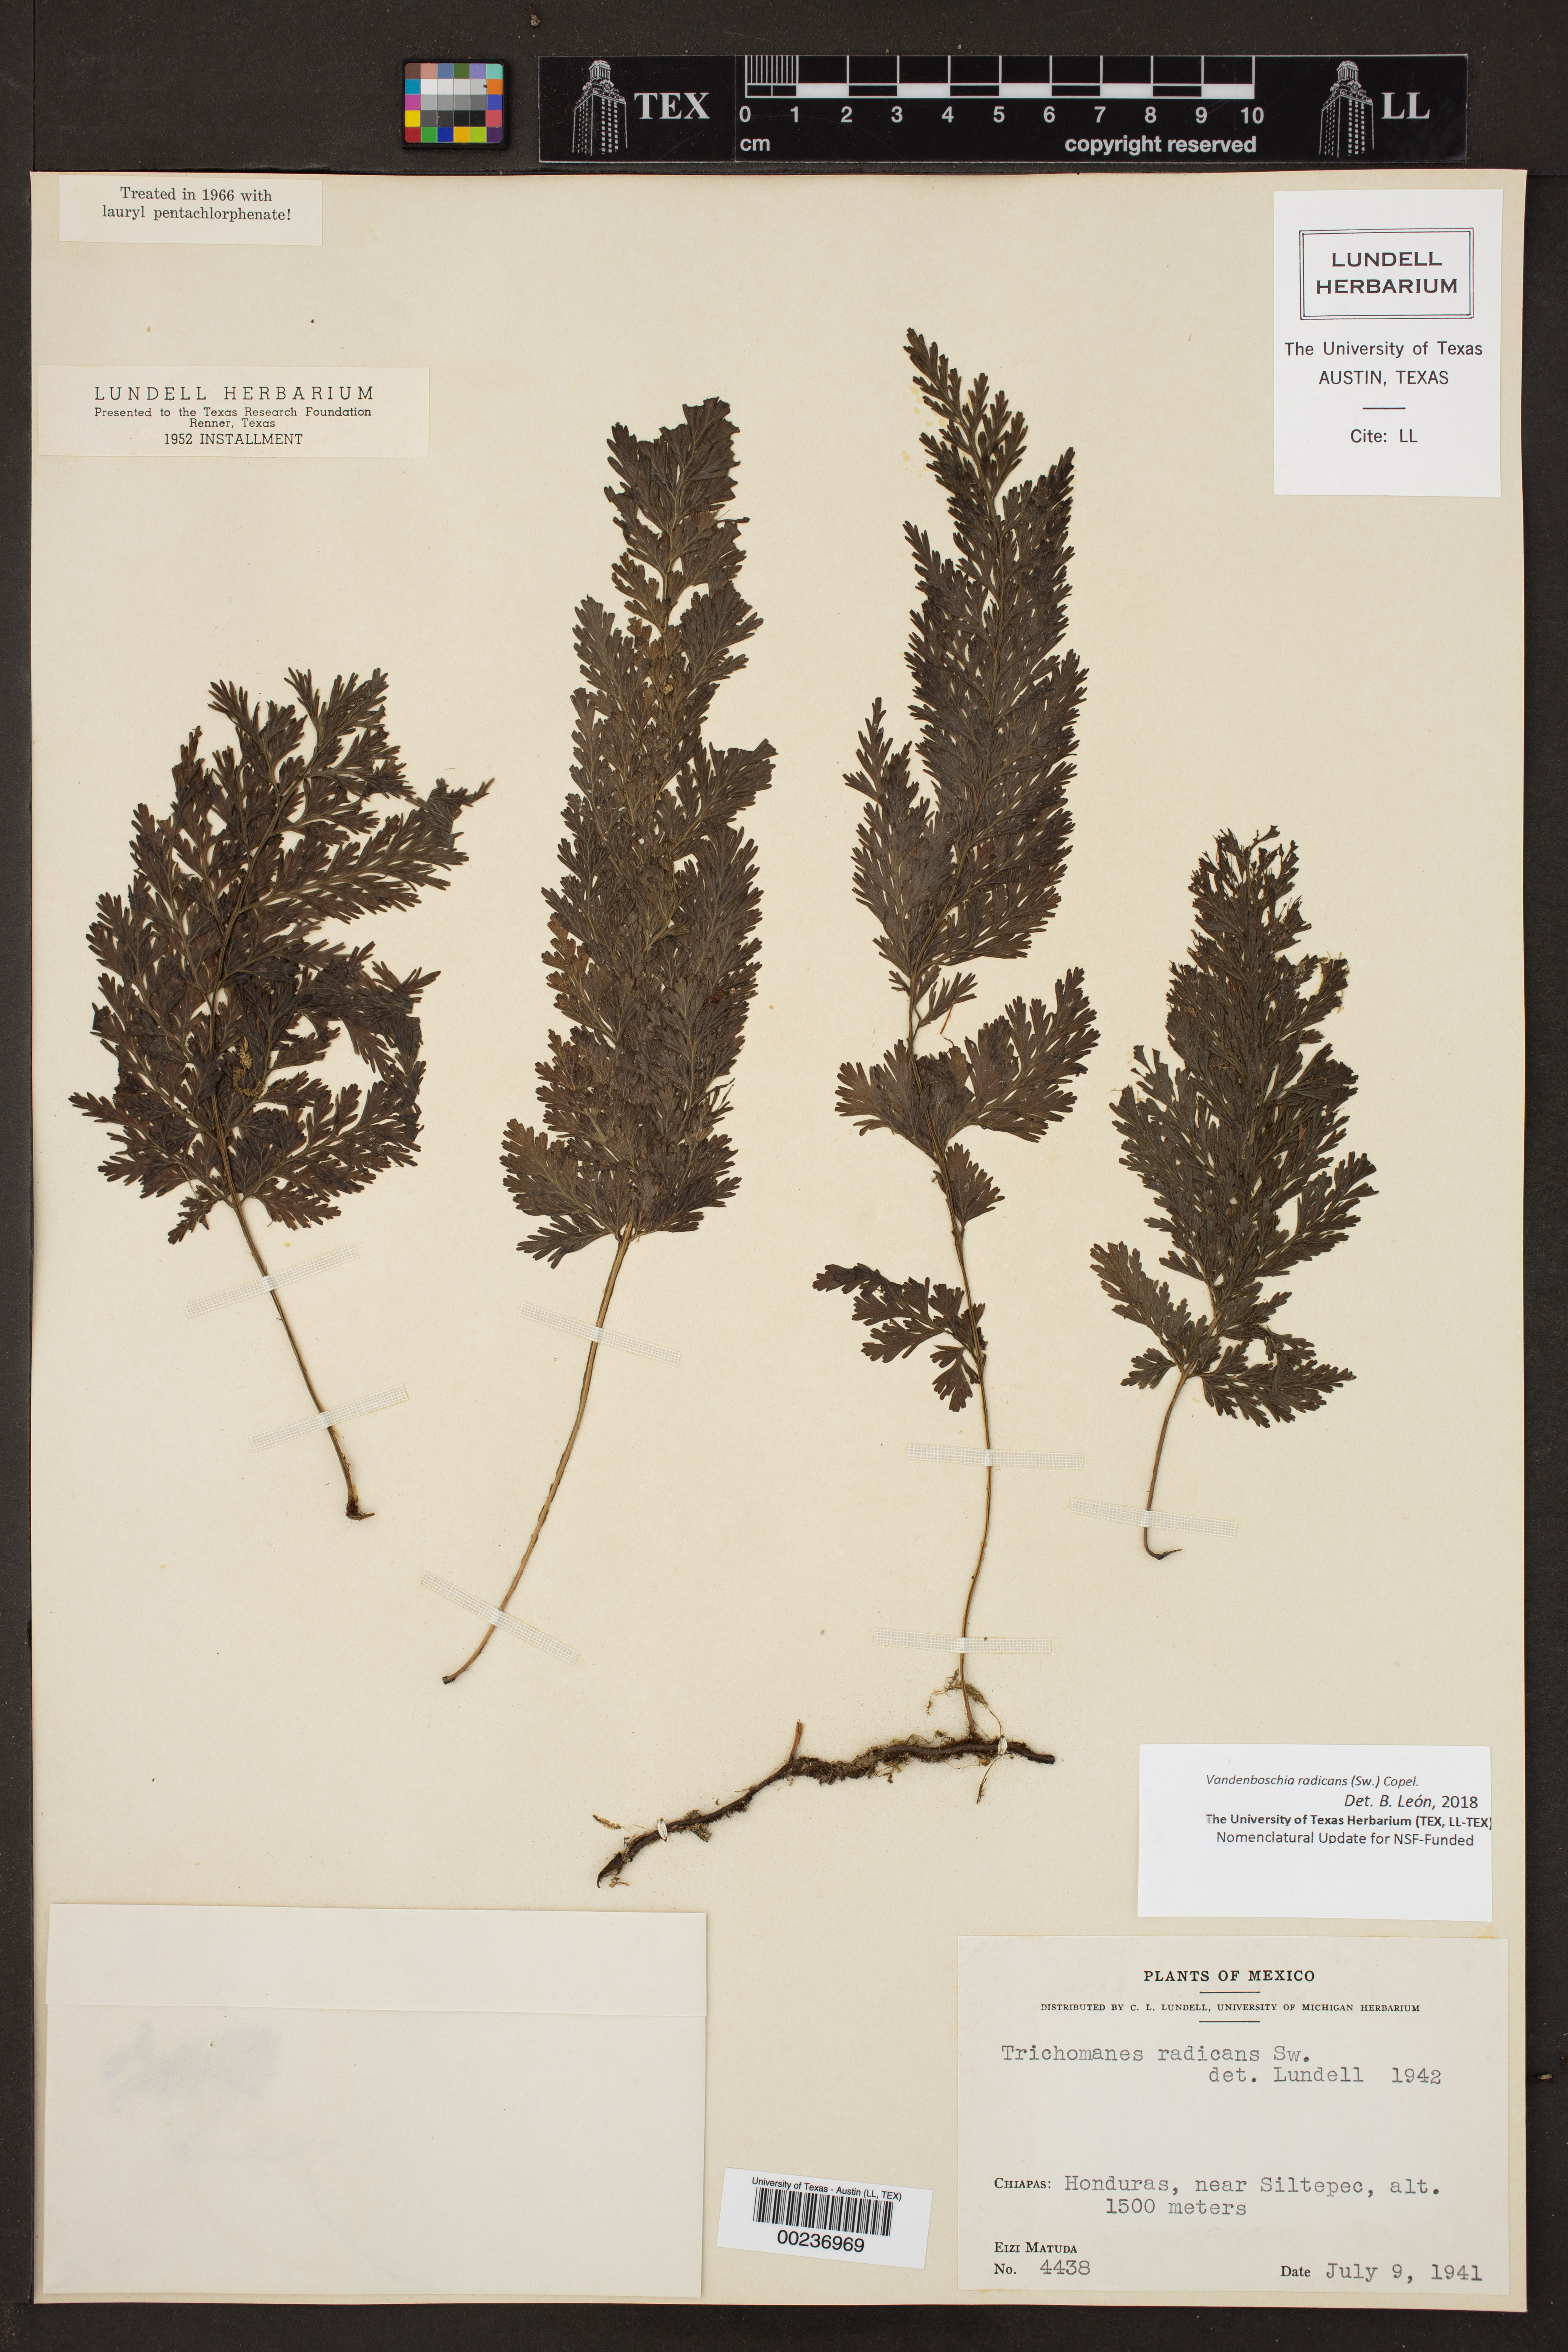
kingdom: Plantae
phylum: Tracheophyta
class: Polypodiopsida
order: Hymenophyllales
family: Hymenophyllaceae
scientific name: Hymenophyllaceae
